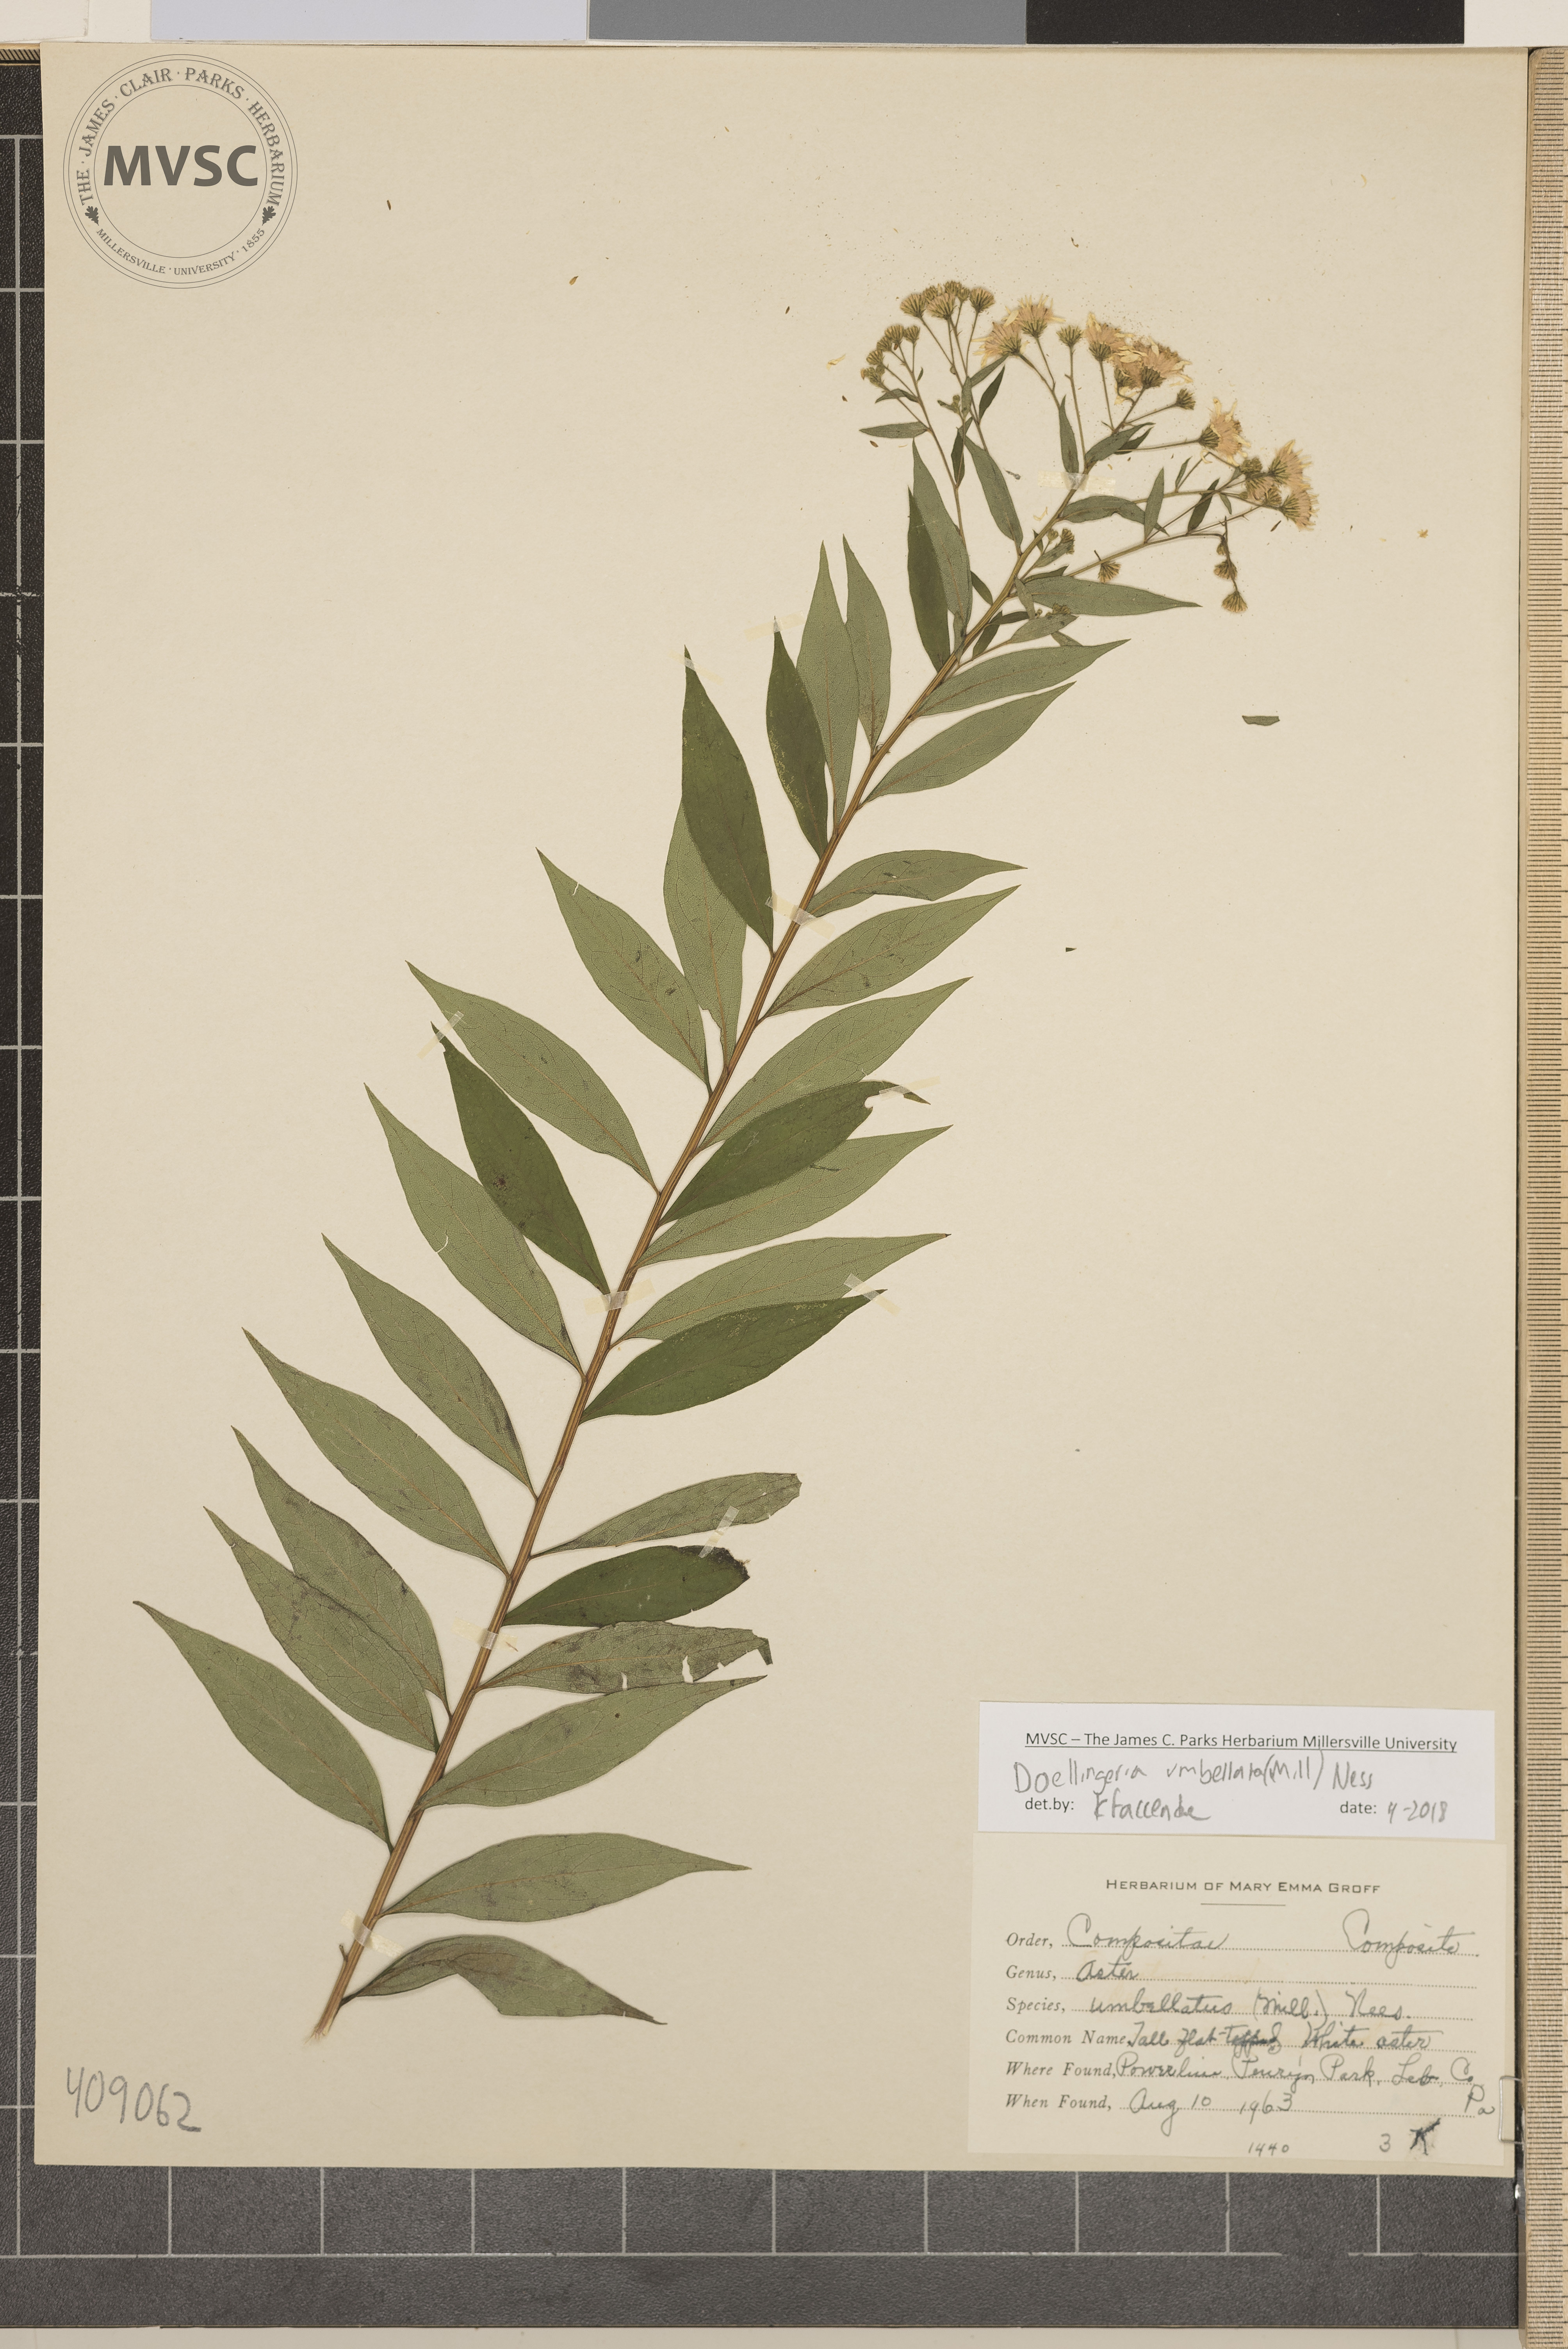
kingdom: Plantae
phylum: Tracheophyta
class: Magnoliopsida
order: Asterales
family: Asteraceae
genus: Doellingeria
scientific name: Doellingeria umbellata
